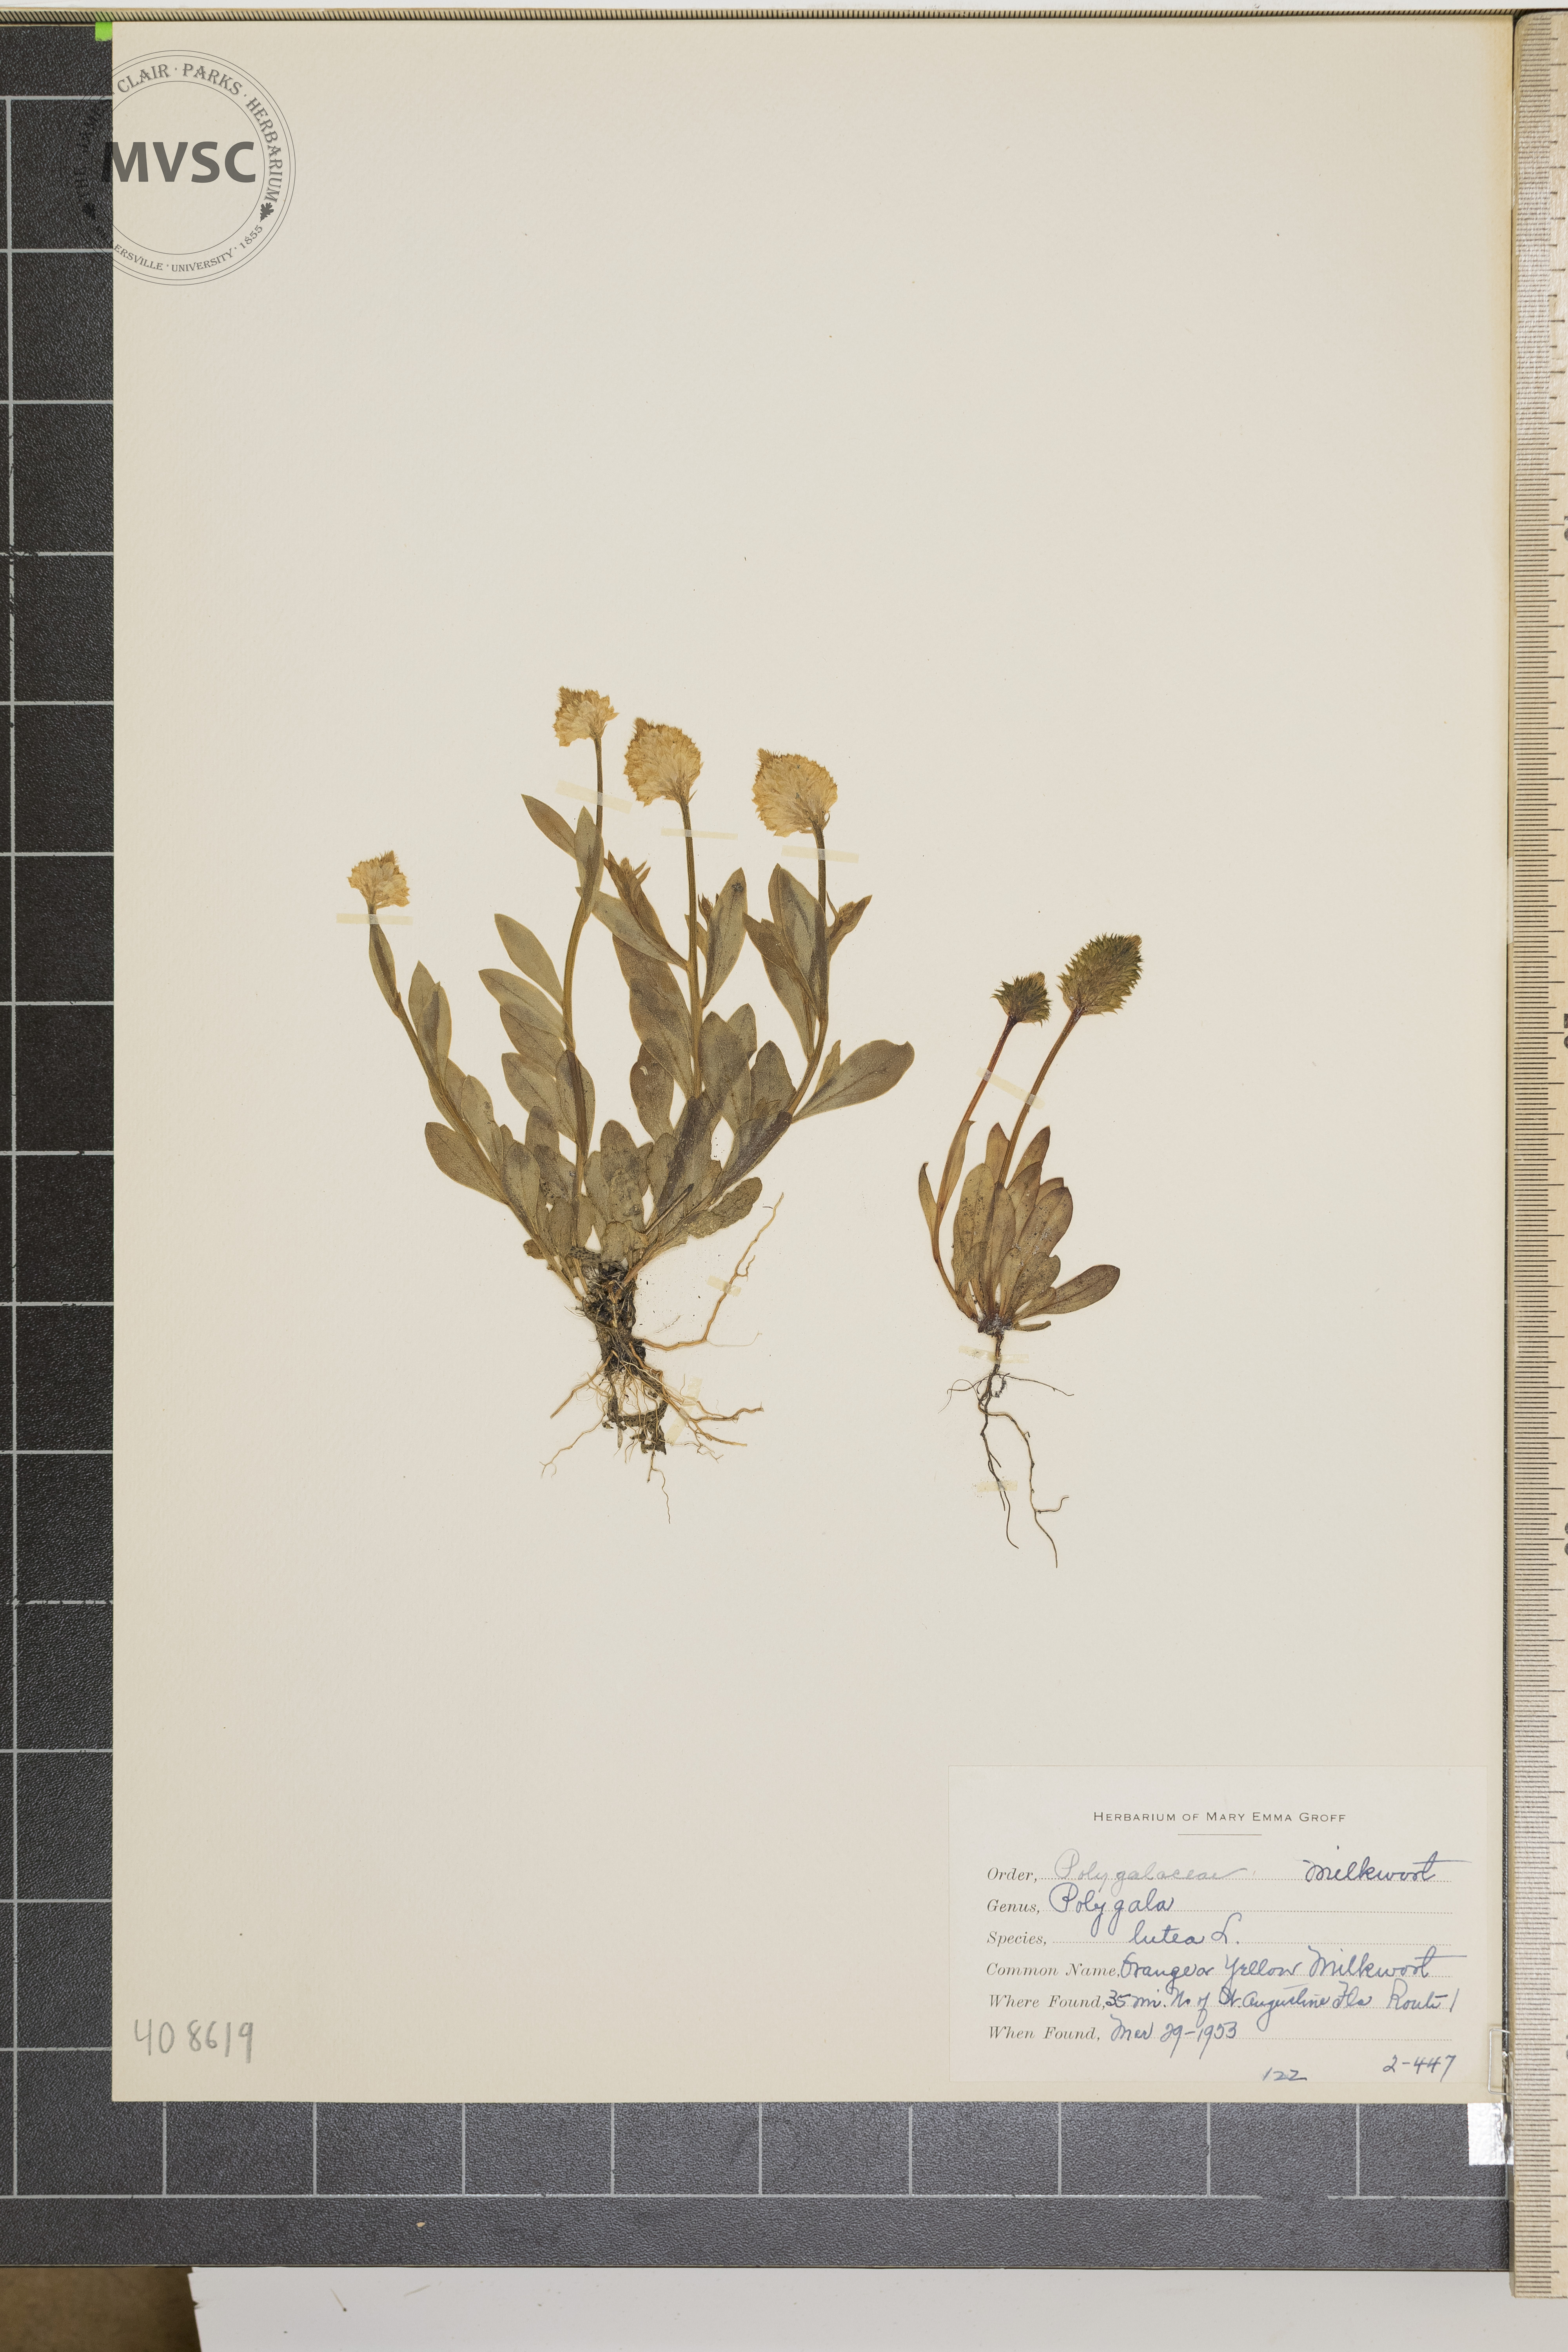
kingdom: Plantae
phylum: Tracheophyta
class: Magnoliopsida
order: Fabales
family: Polygalaceae
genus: Polygala
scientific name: Polygala lutea
